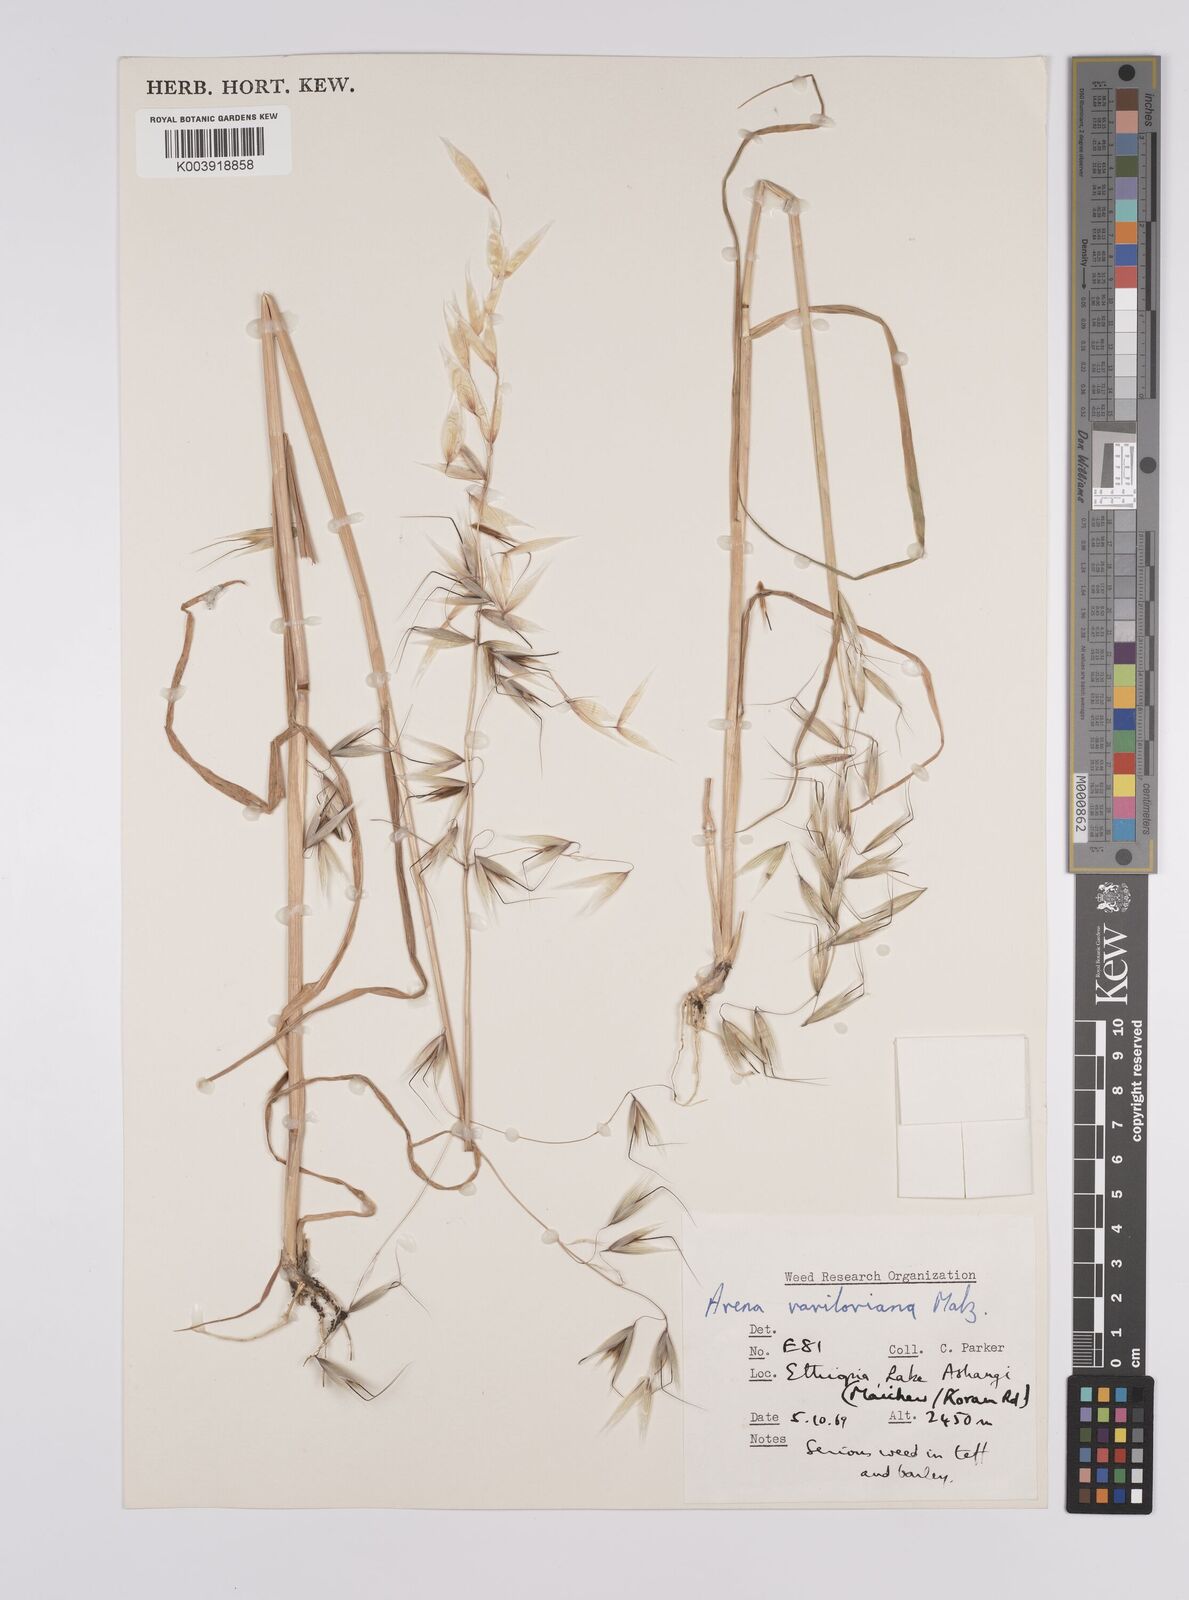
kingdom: Plantae
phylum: Tracheophyta
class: Liliopsida
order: Poales
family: Poaceae
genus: Avena
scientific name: Avena vaviloviana
